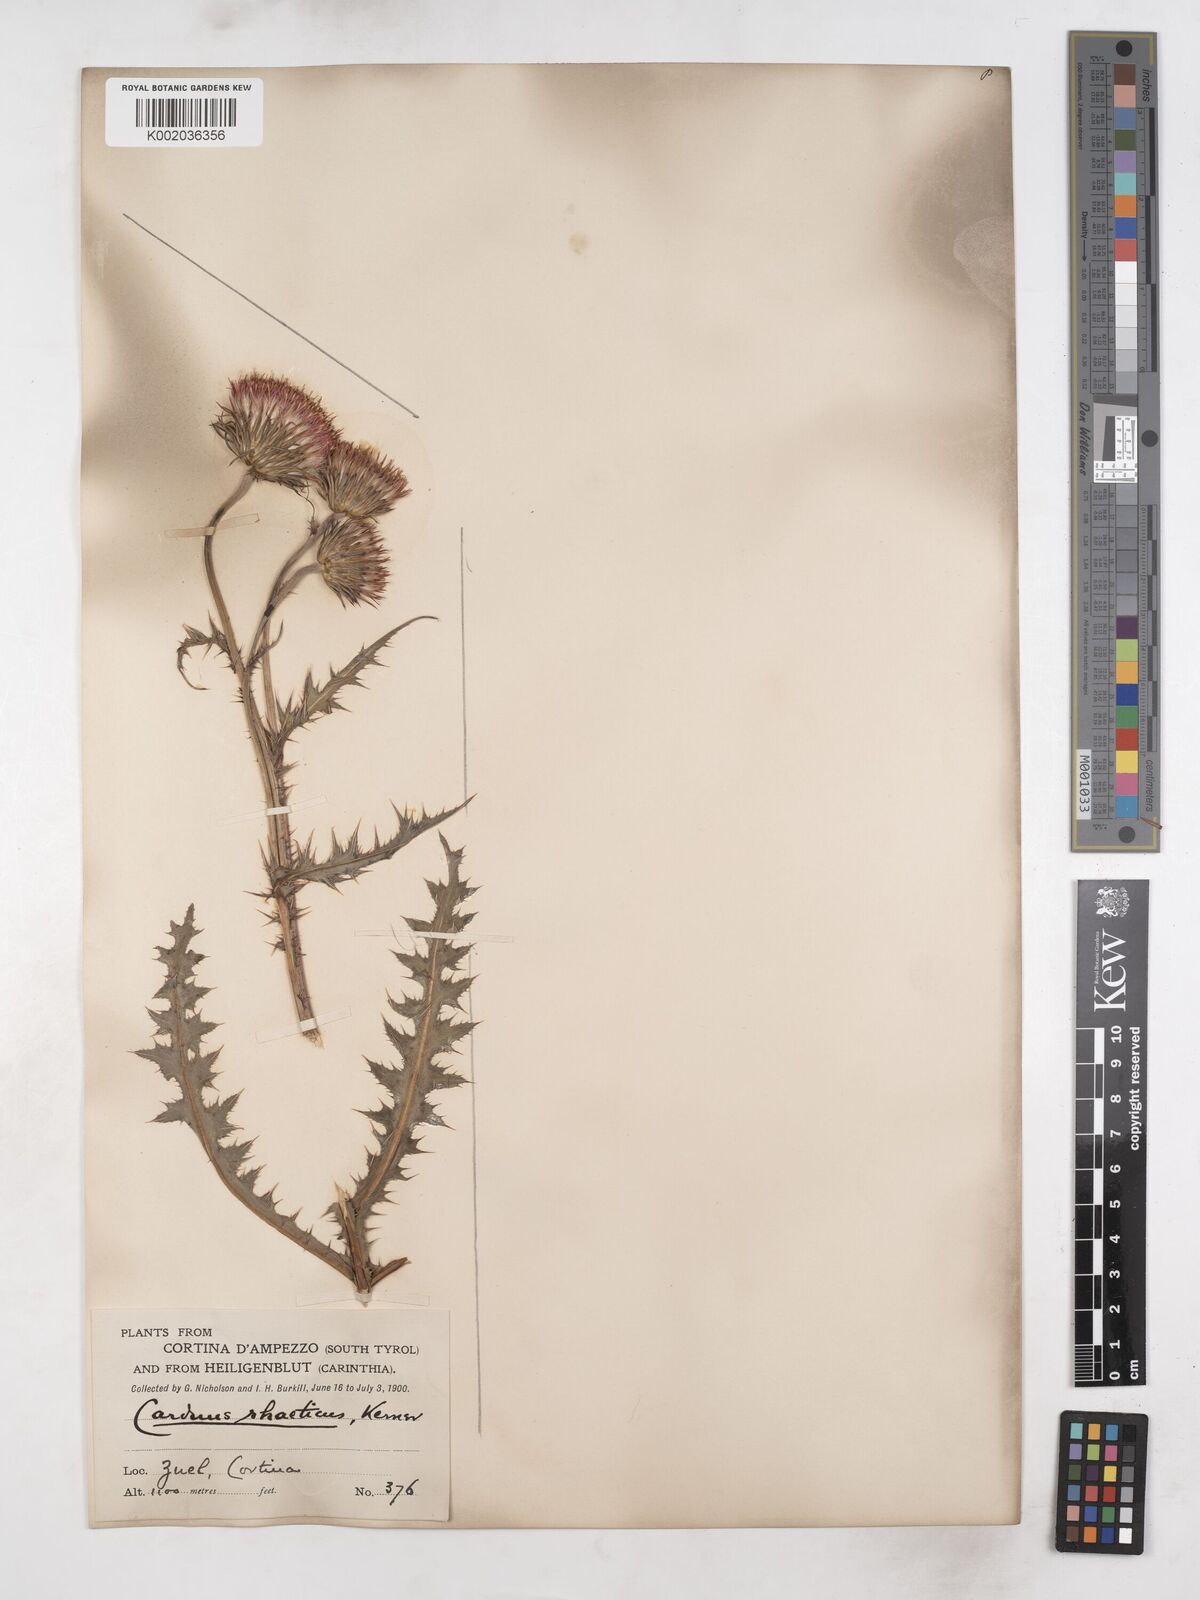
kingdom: Plantae
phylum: Tracheophyta
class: Magnoliopsida
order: Asterales
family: Asteraceae
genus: Carduus
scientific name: Carduus defloratus
